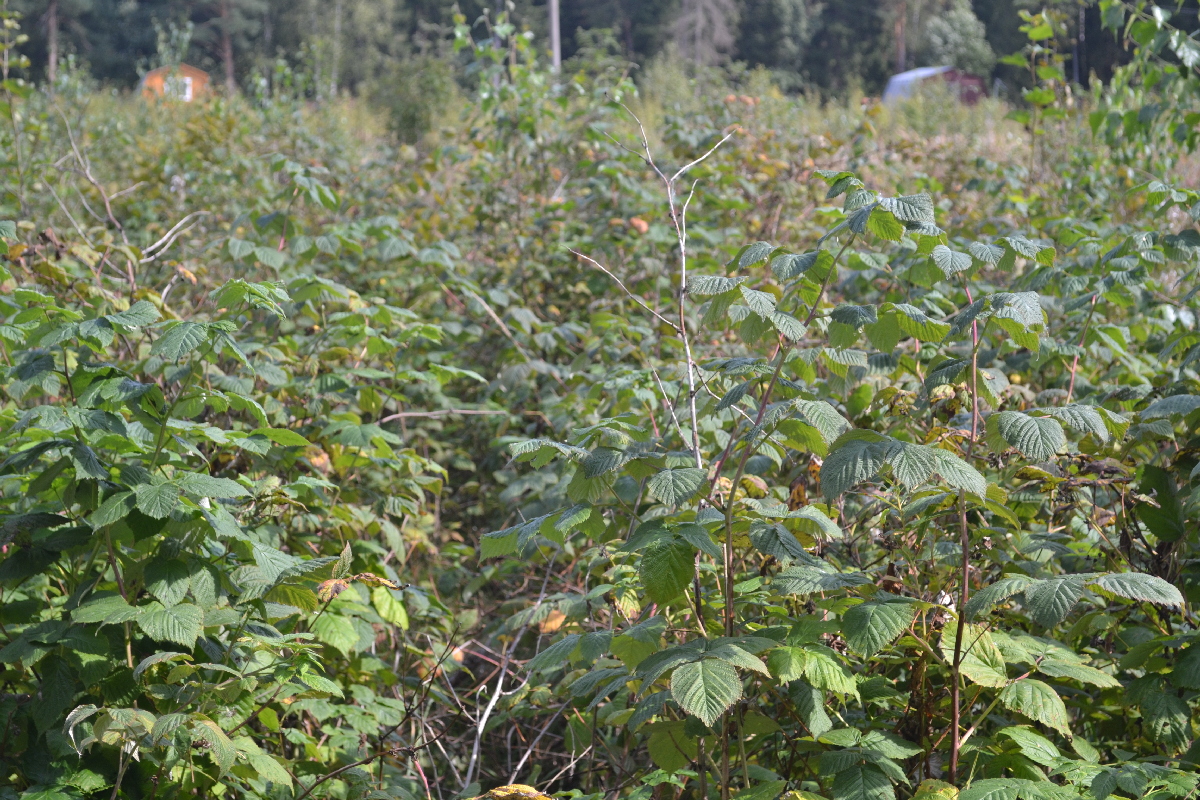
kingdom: Plantae
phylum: Tracheophyta
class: Magnoliopsida
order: Rosales
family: Rosaceae
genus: Rubus
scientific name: Rubus idaeus
